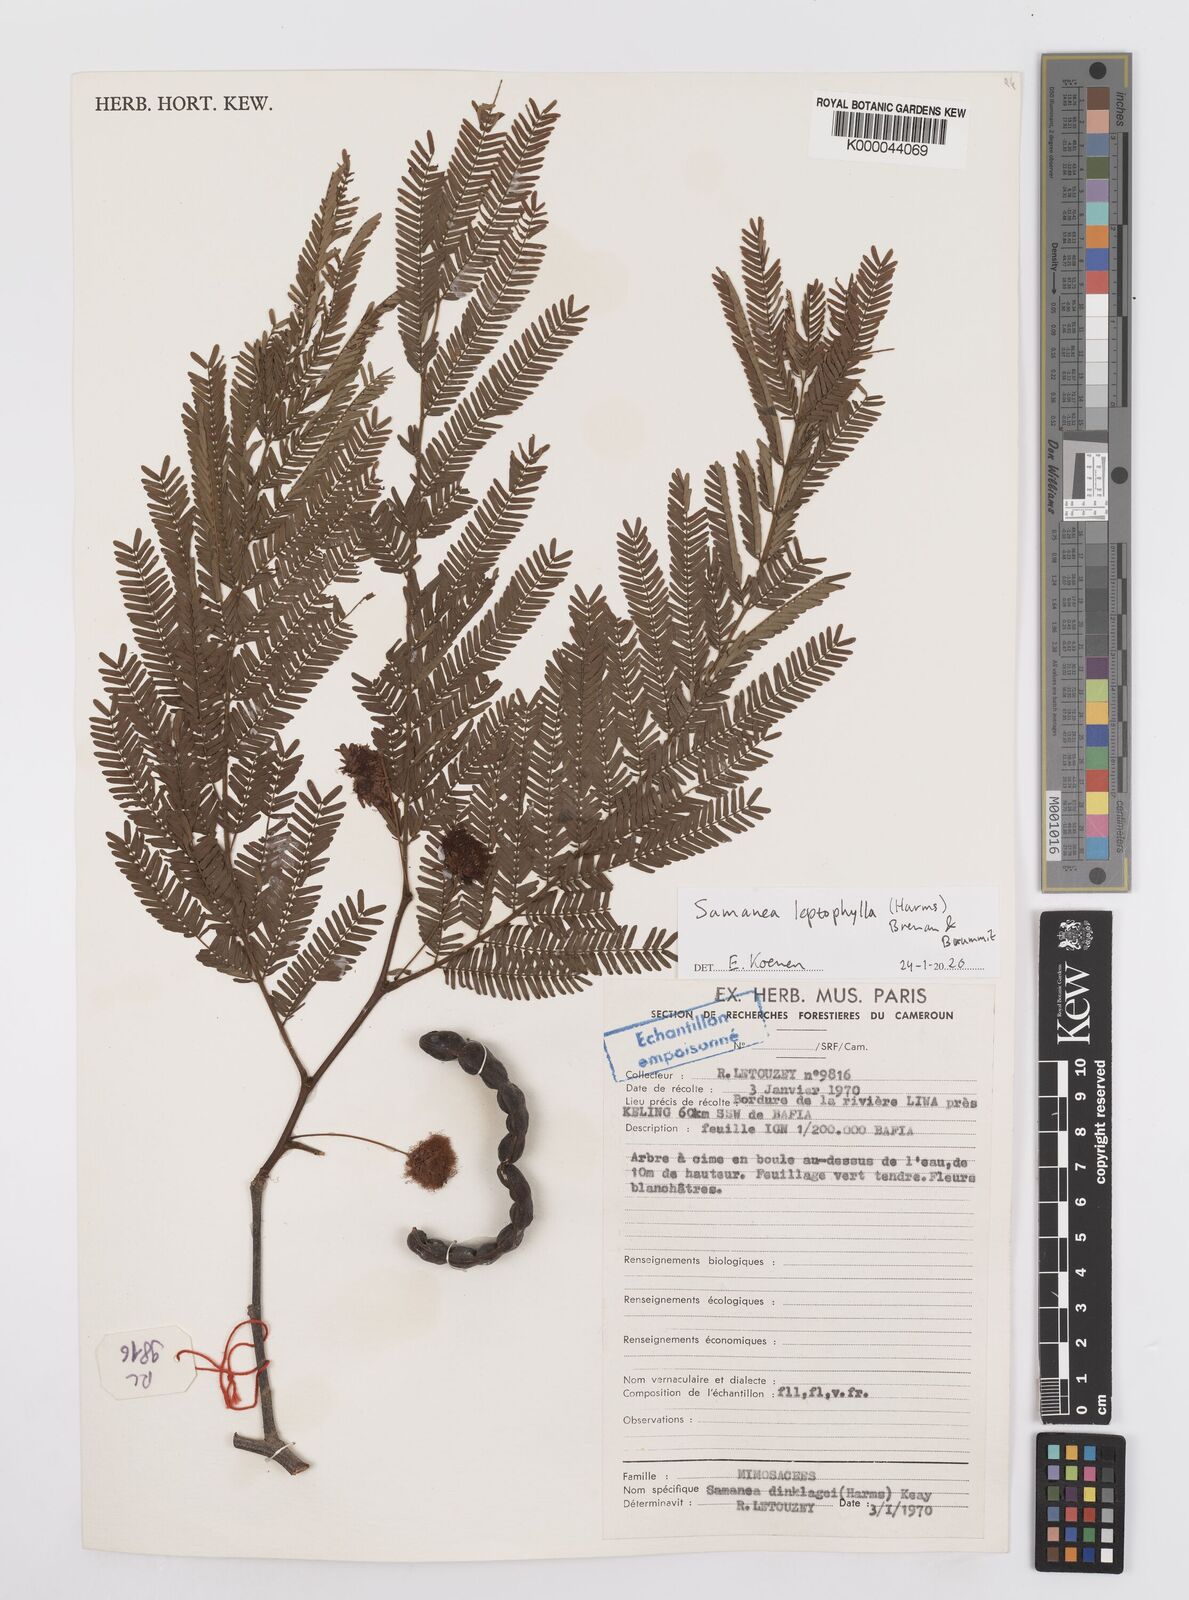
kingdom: Plantae
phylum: Tracheophyta
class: Magnoliopsida
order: Fabales
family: Fabaceae
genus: Albizia
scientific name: Albizia dinklagei
